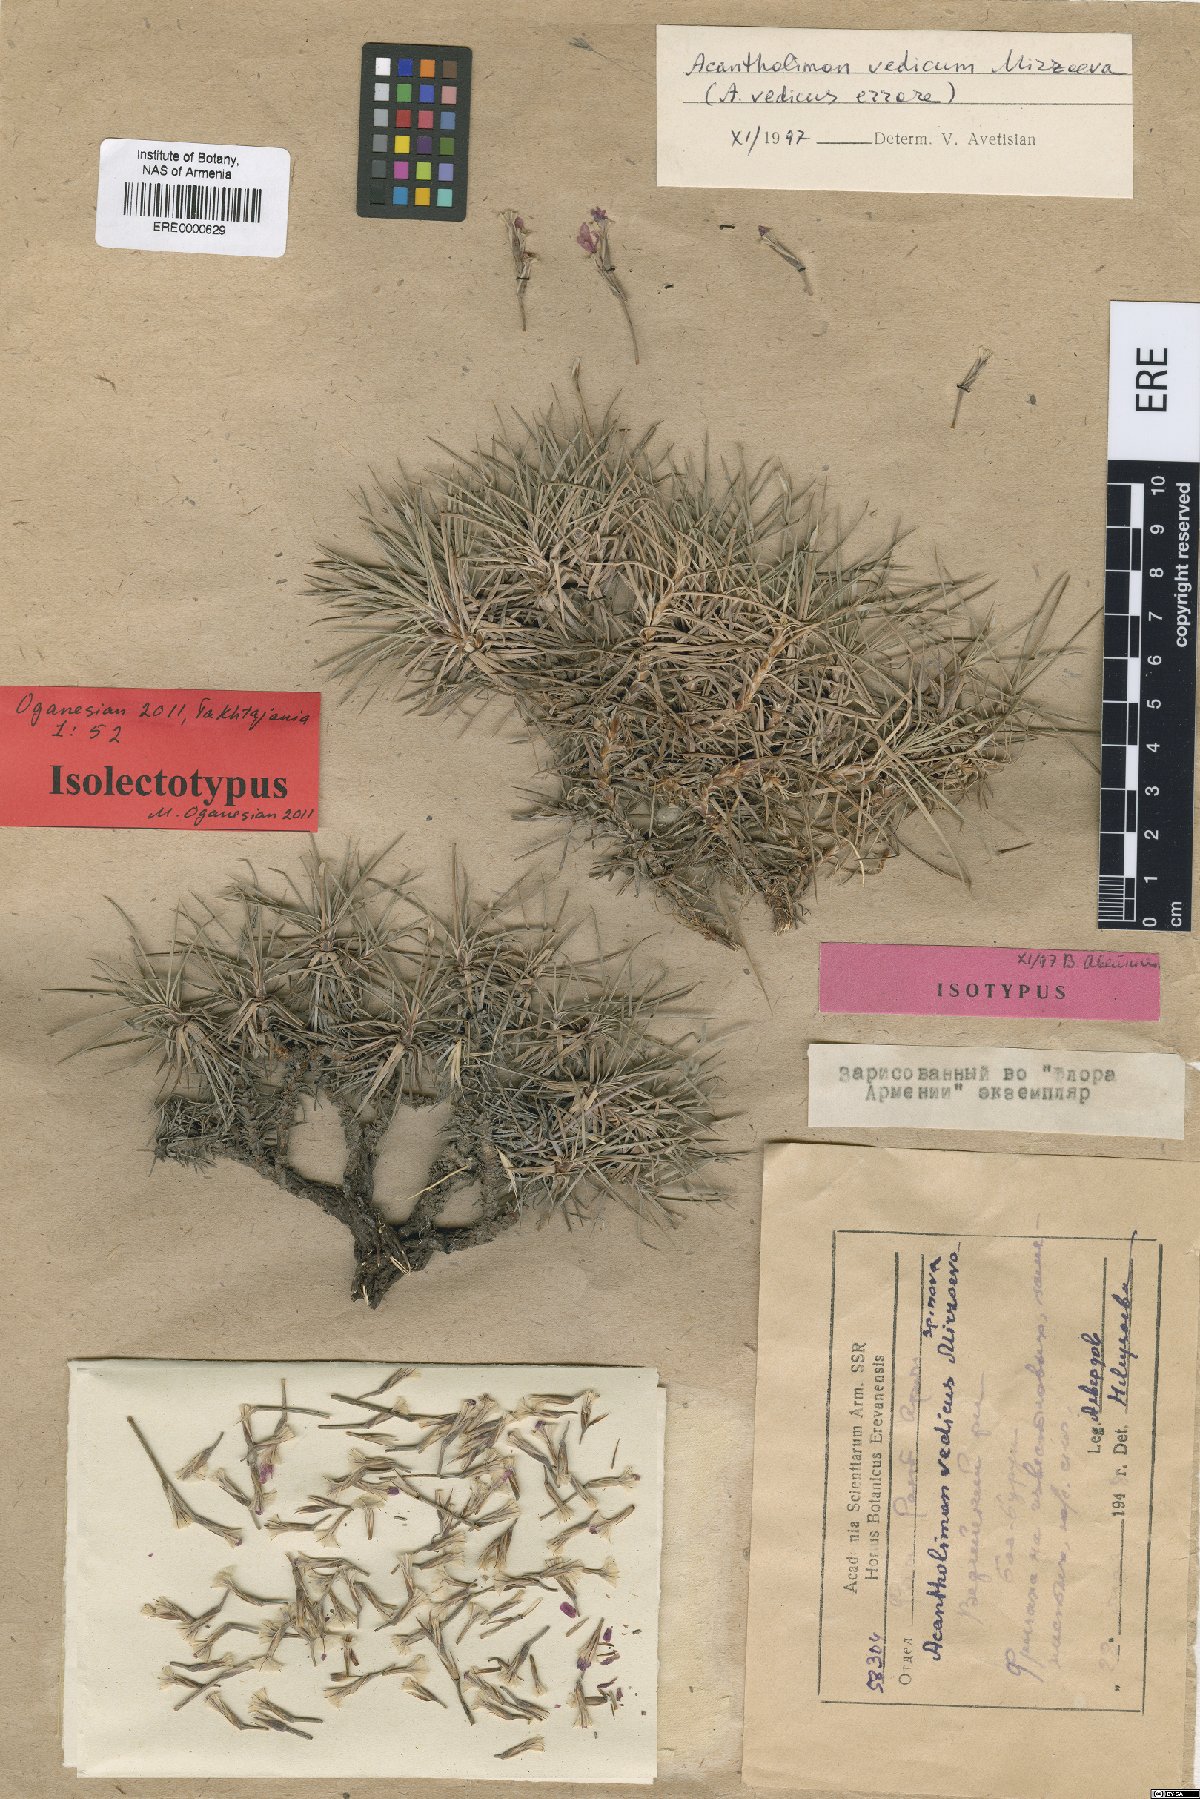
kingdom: Plantae
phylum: Tracheophyta
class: Magnoliopsida
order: Caryophyllales
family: Plumbaginaceae
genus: Acantholimon
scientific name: Acantholimon vedicum
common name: Vedian prickly thrift
